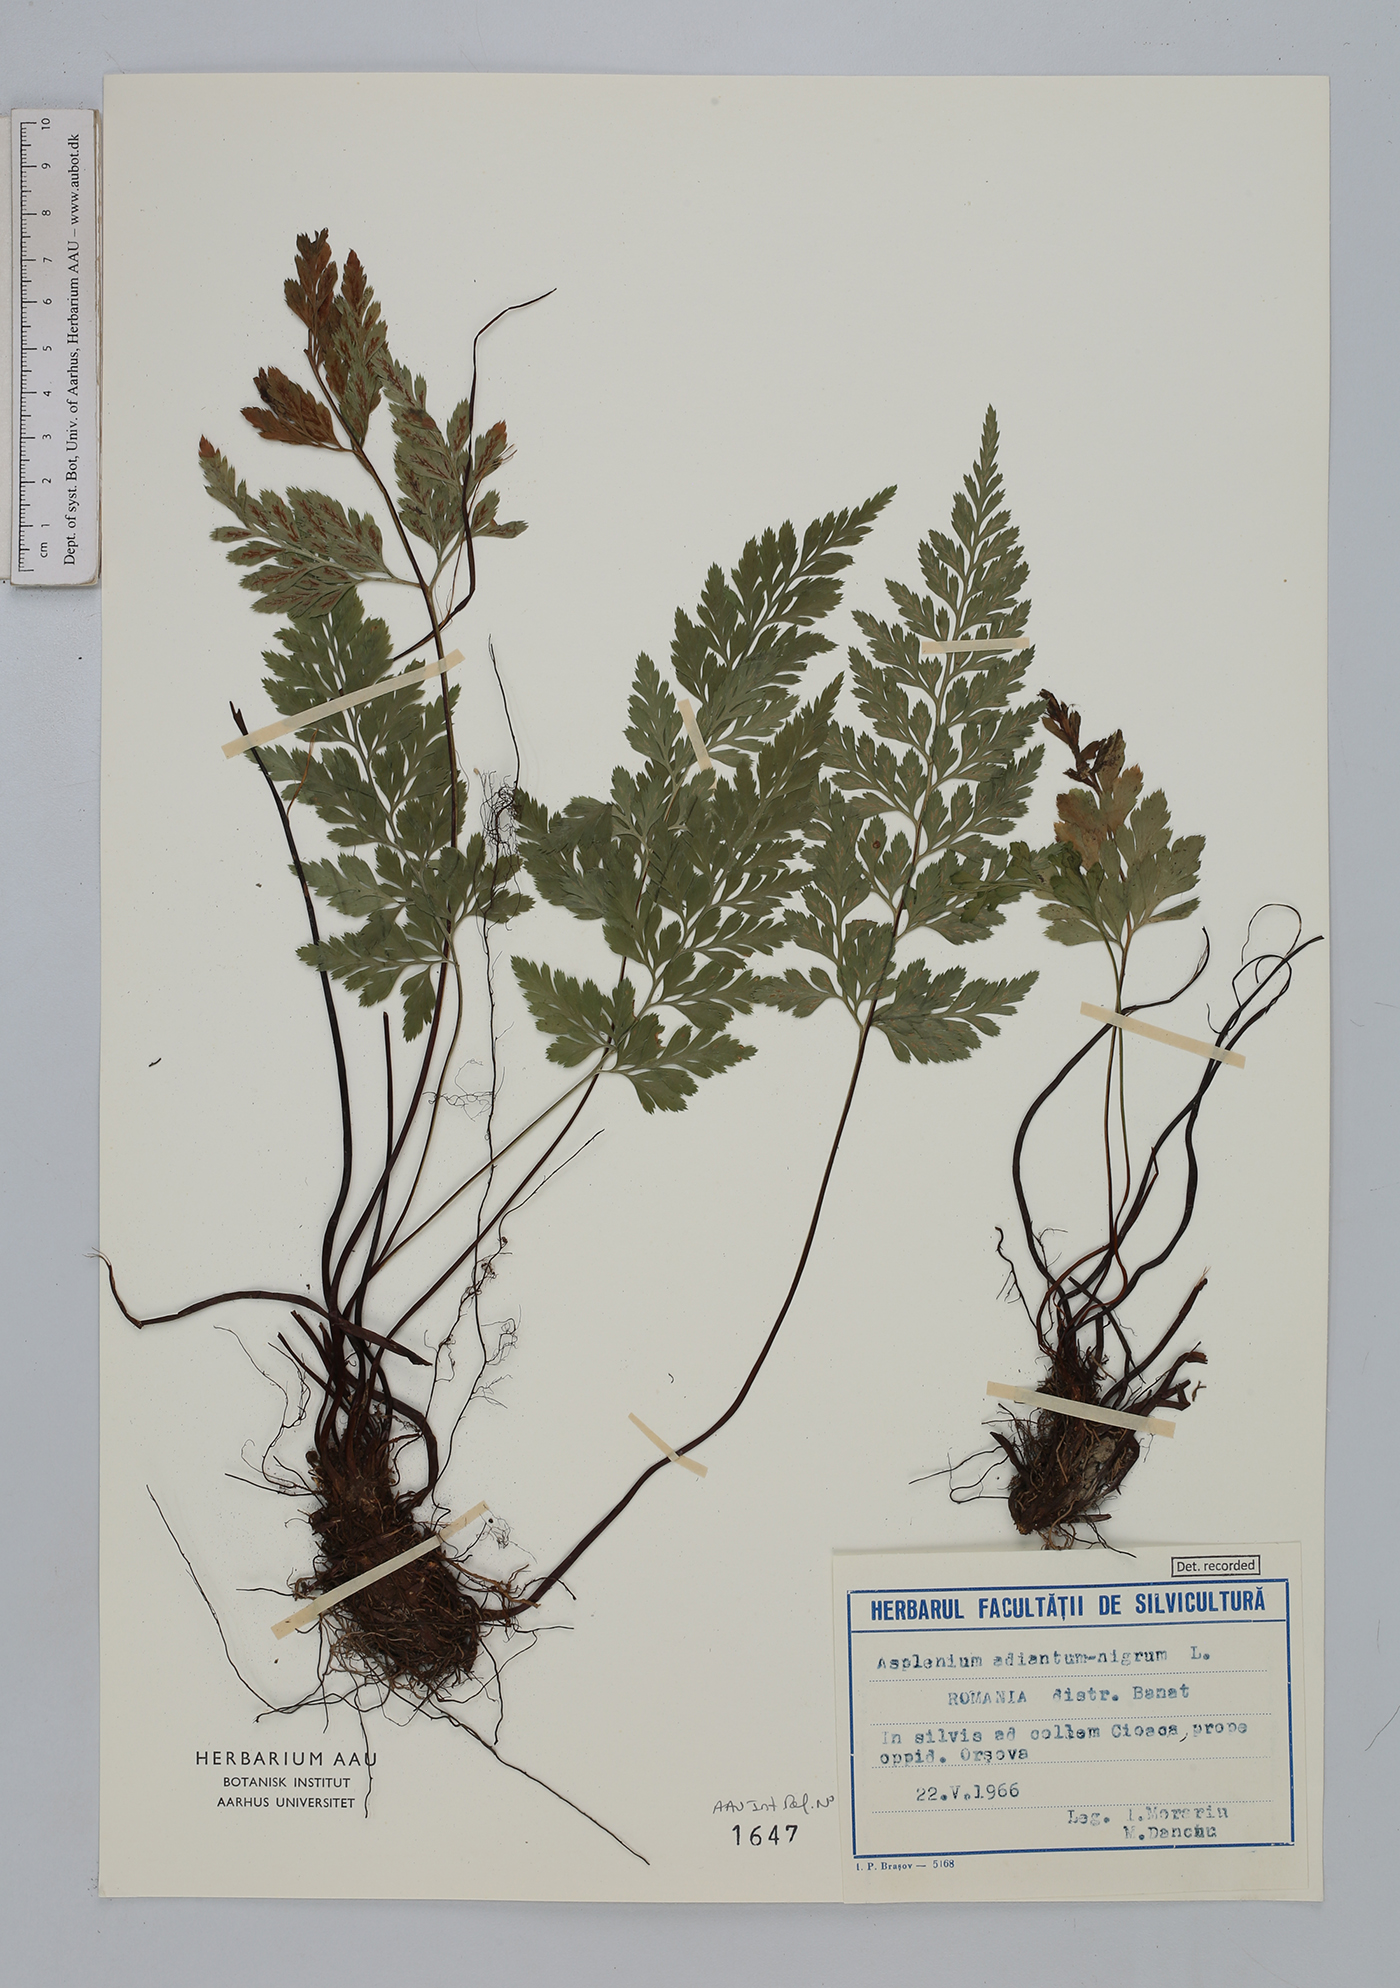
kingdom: Plantae
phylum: Tracheophyta
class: Polypodiopsida
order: Polypodiales
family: Aspleniaceae
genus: Asplenium
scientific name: Asplenium adiantum-nigrum
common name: Black spleenwort
